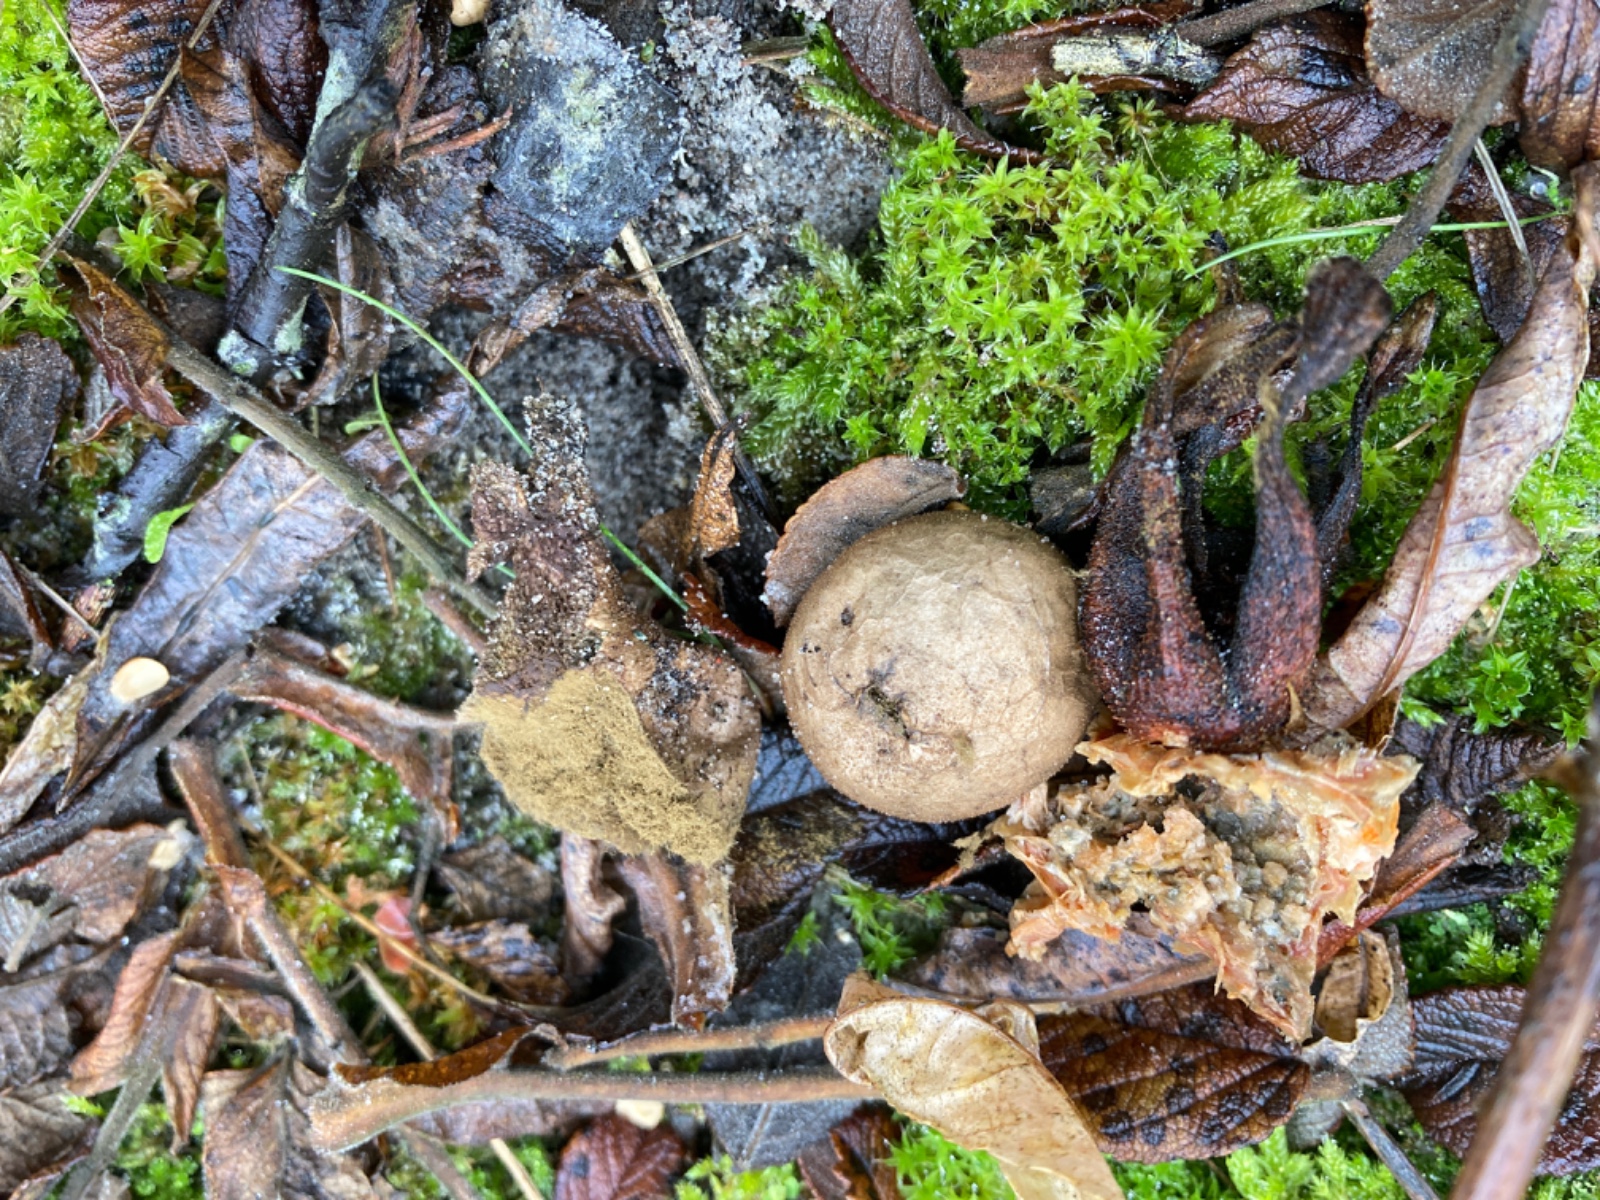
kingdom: Fungi
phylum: Basidiomycota
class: Agaricomycetes
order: Agaricales
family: Lycoperdaceae
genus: Lycoperdon
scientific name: Lycoperdon lividum
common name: mark-støvbold
